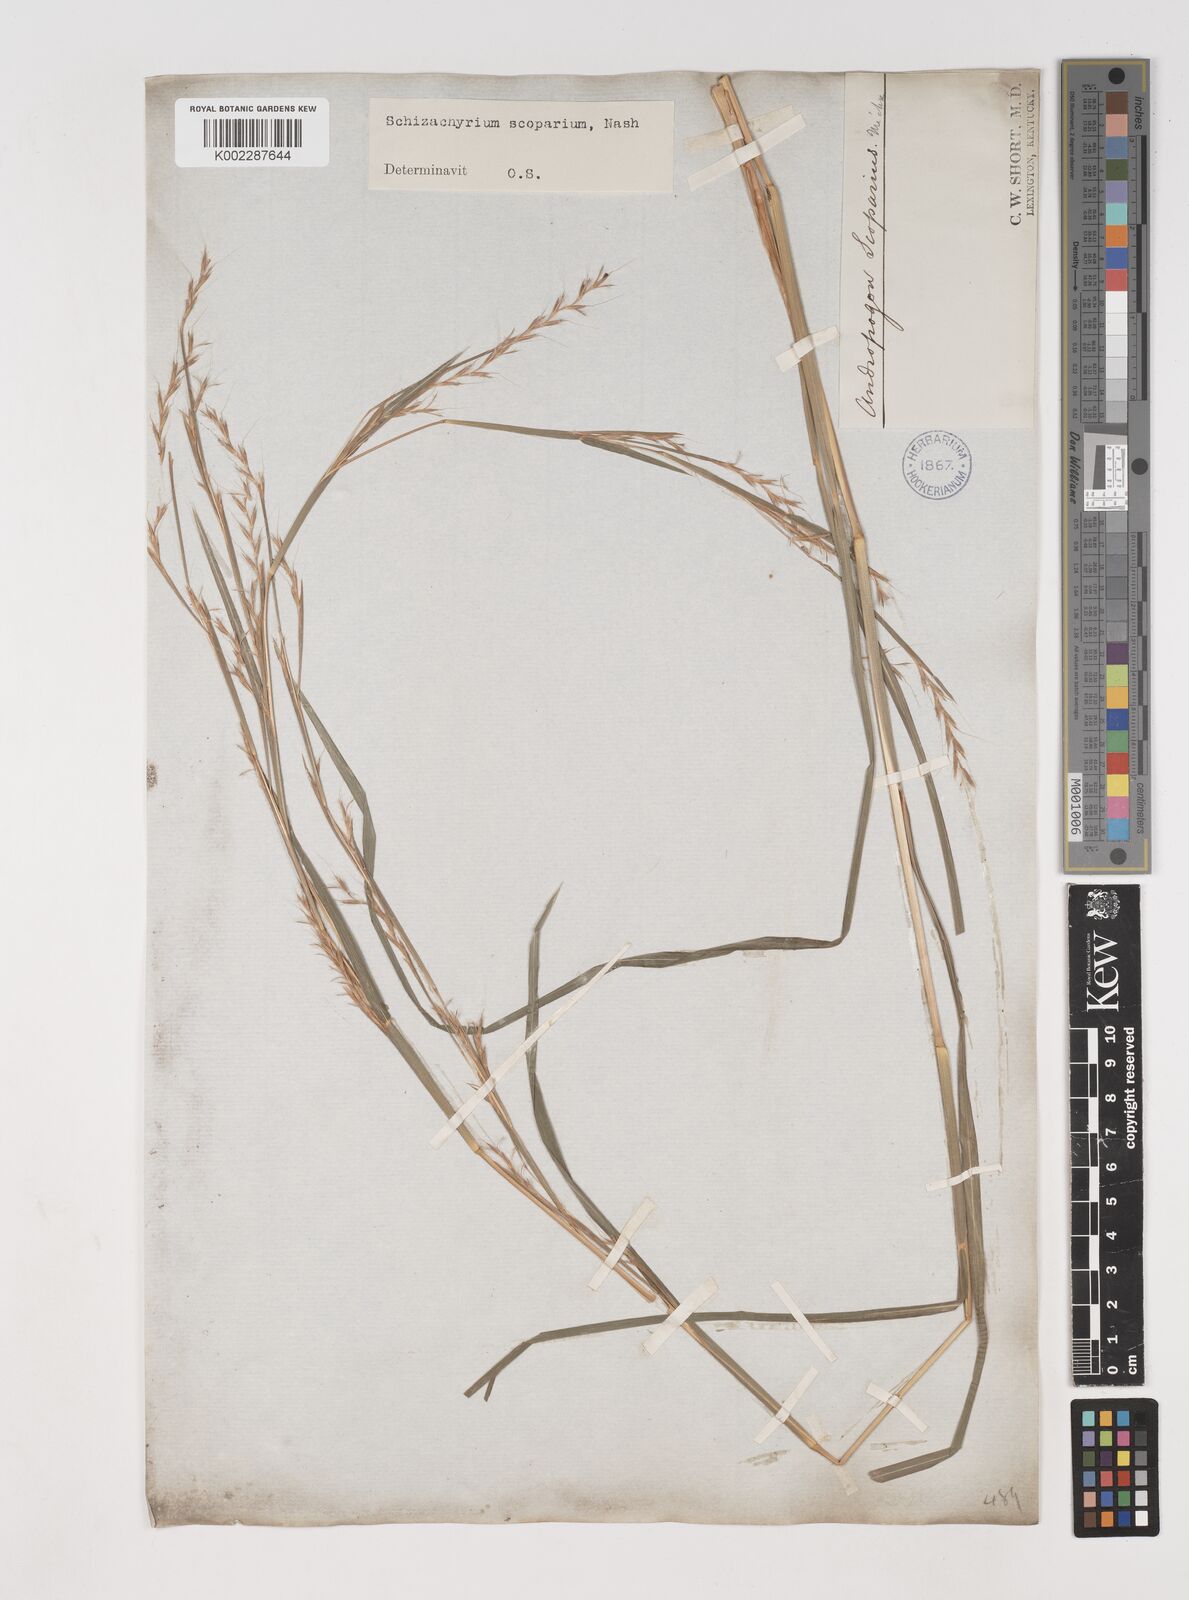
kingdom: Plantae
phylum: Tracheophyta
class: Liliopsida
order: Poales
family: Poaceae
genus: Schizachyrium
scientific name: Schizachyrium scoparium
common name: Little bluestem
